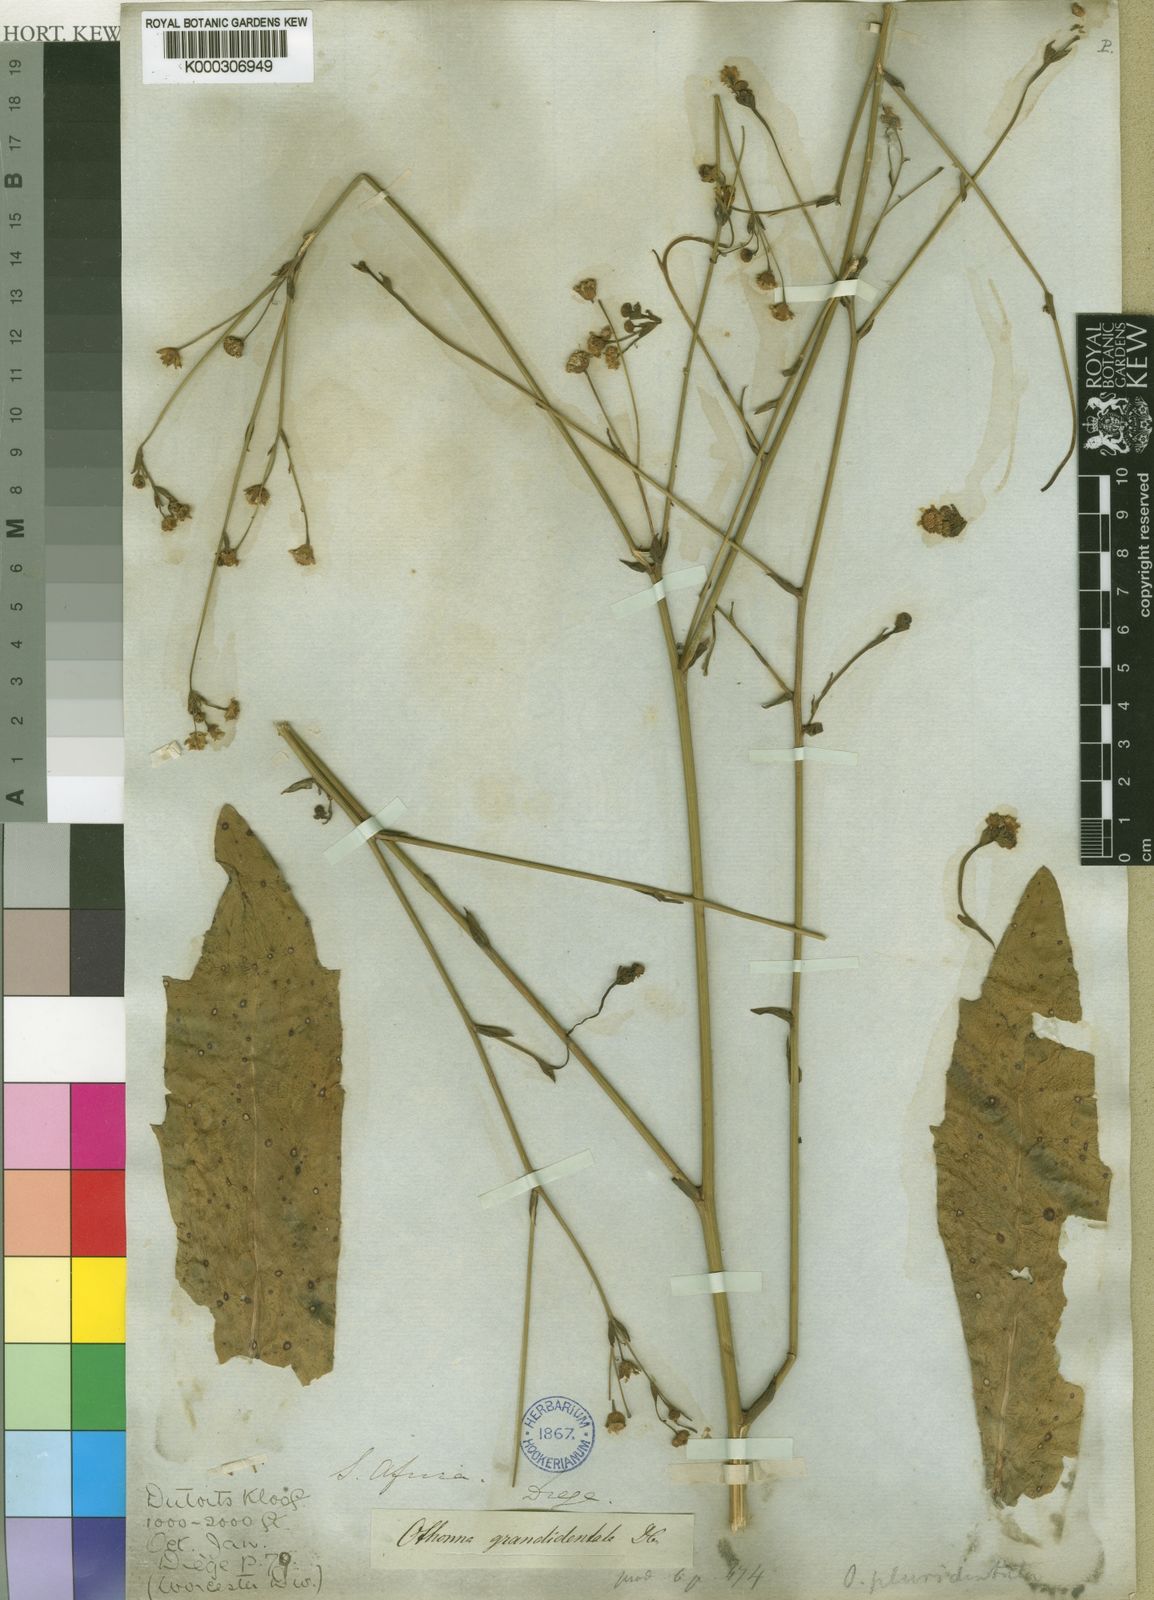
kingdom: Plantae
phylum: Tracheophyta
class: Magnoliopsida
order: Asterales
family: Asteraceae
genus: Othonna
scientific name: Othonna pluridentata
